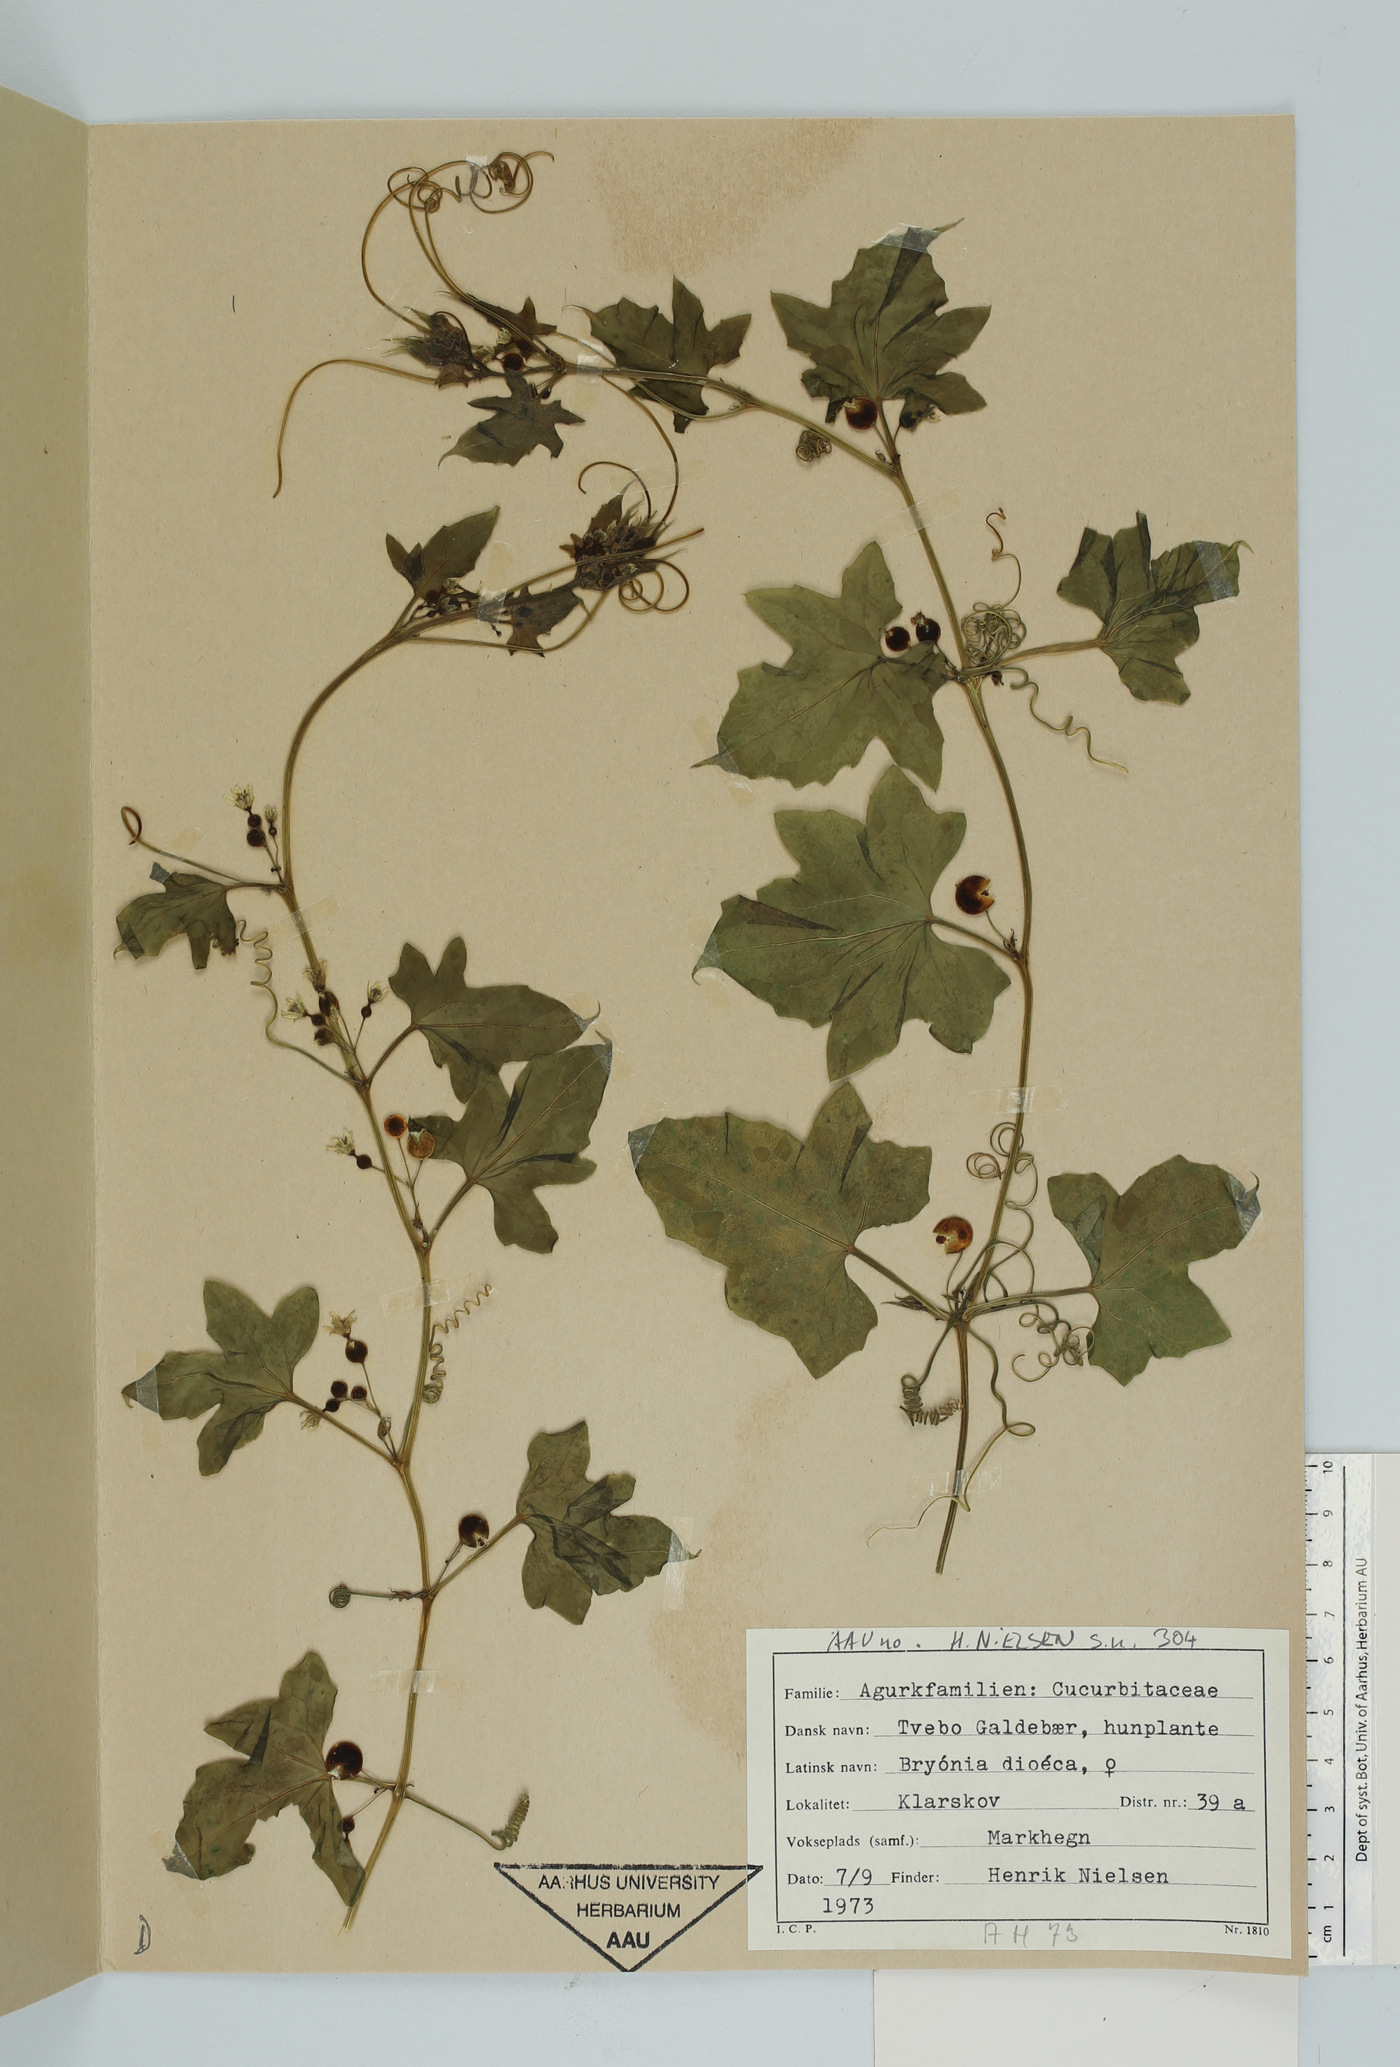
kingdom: Plantae
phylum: Tracheophyta
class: Magnoliopsida
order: Cucurbitales
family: Cucurbitaceae
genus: Bryonia
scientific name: Bryonia dioica
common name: White bryony
